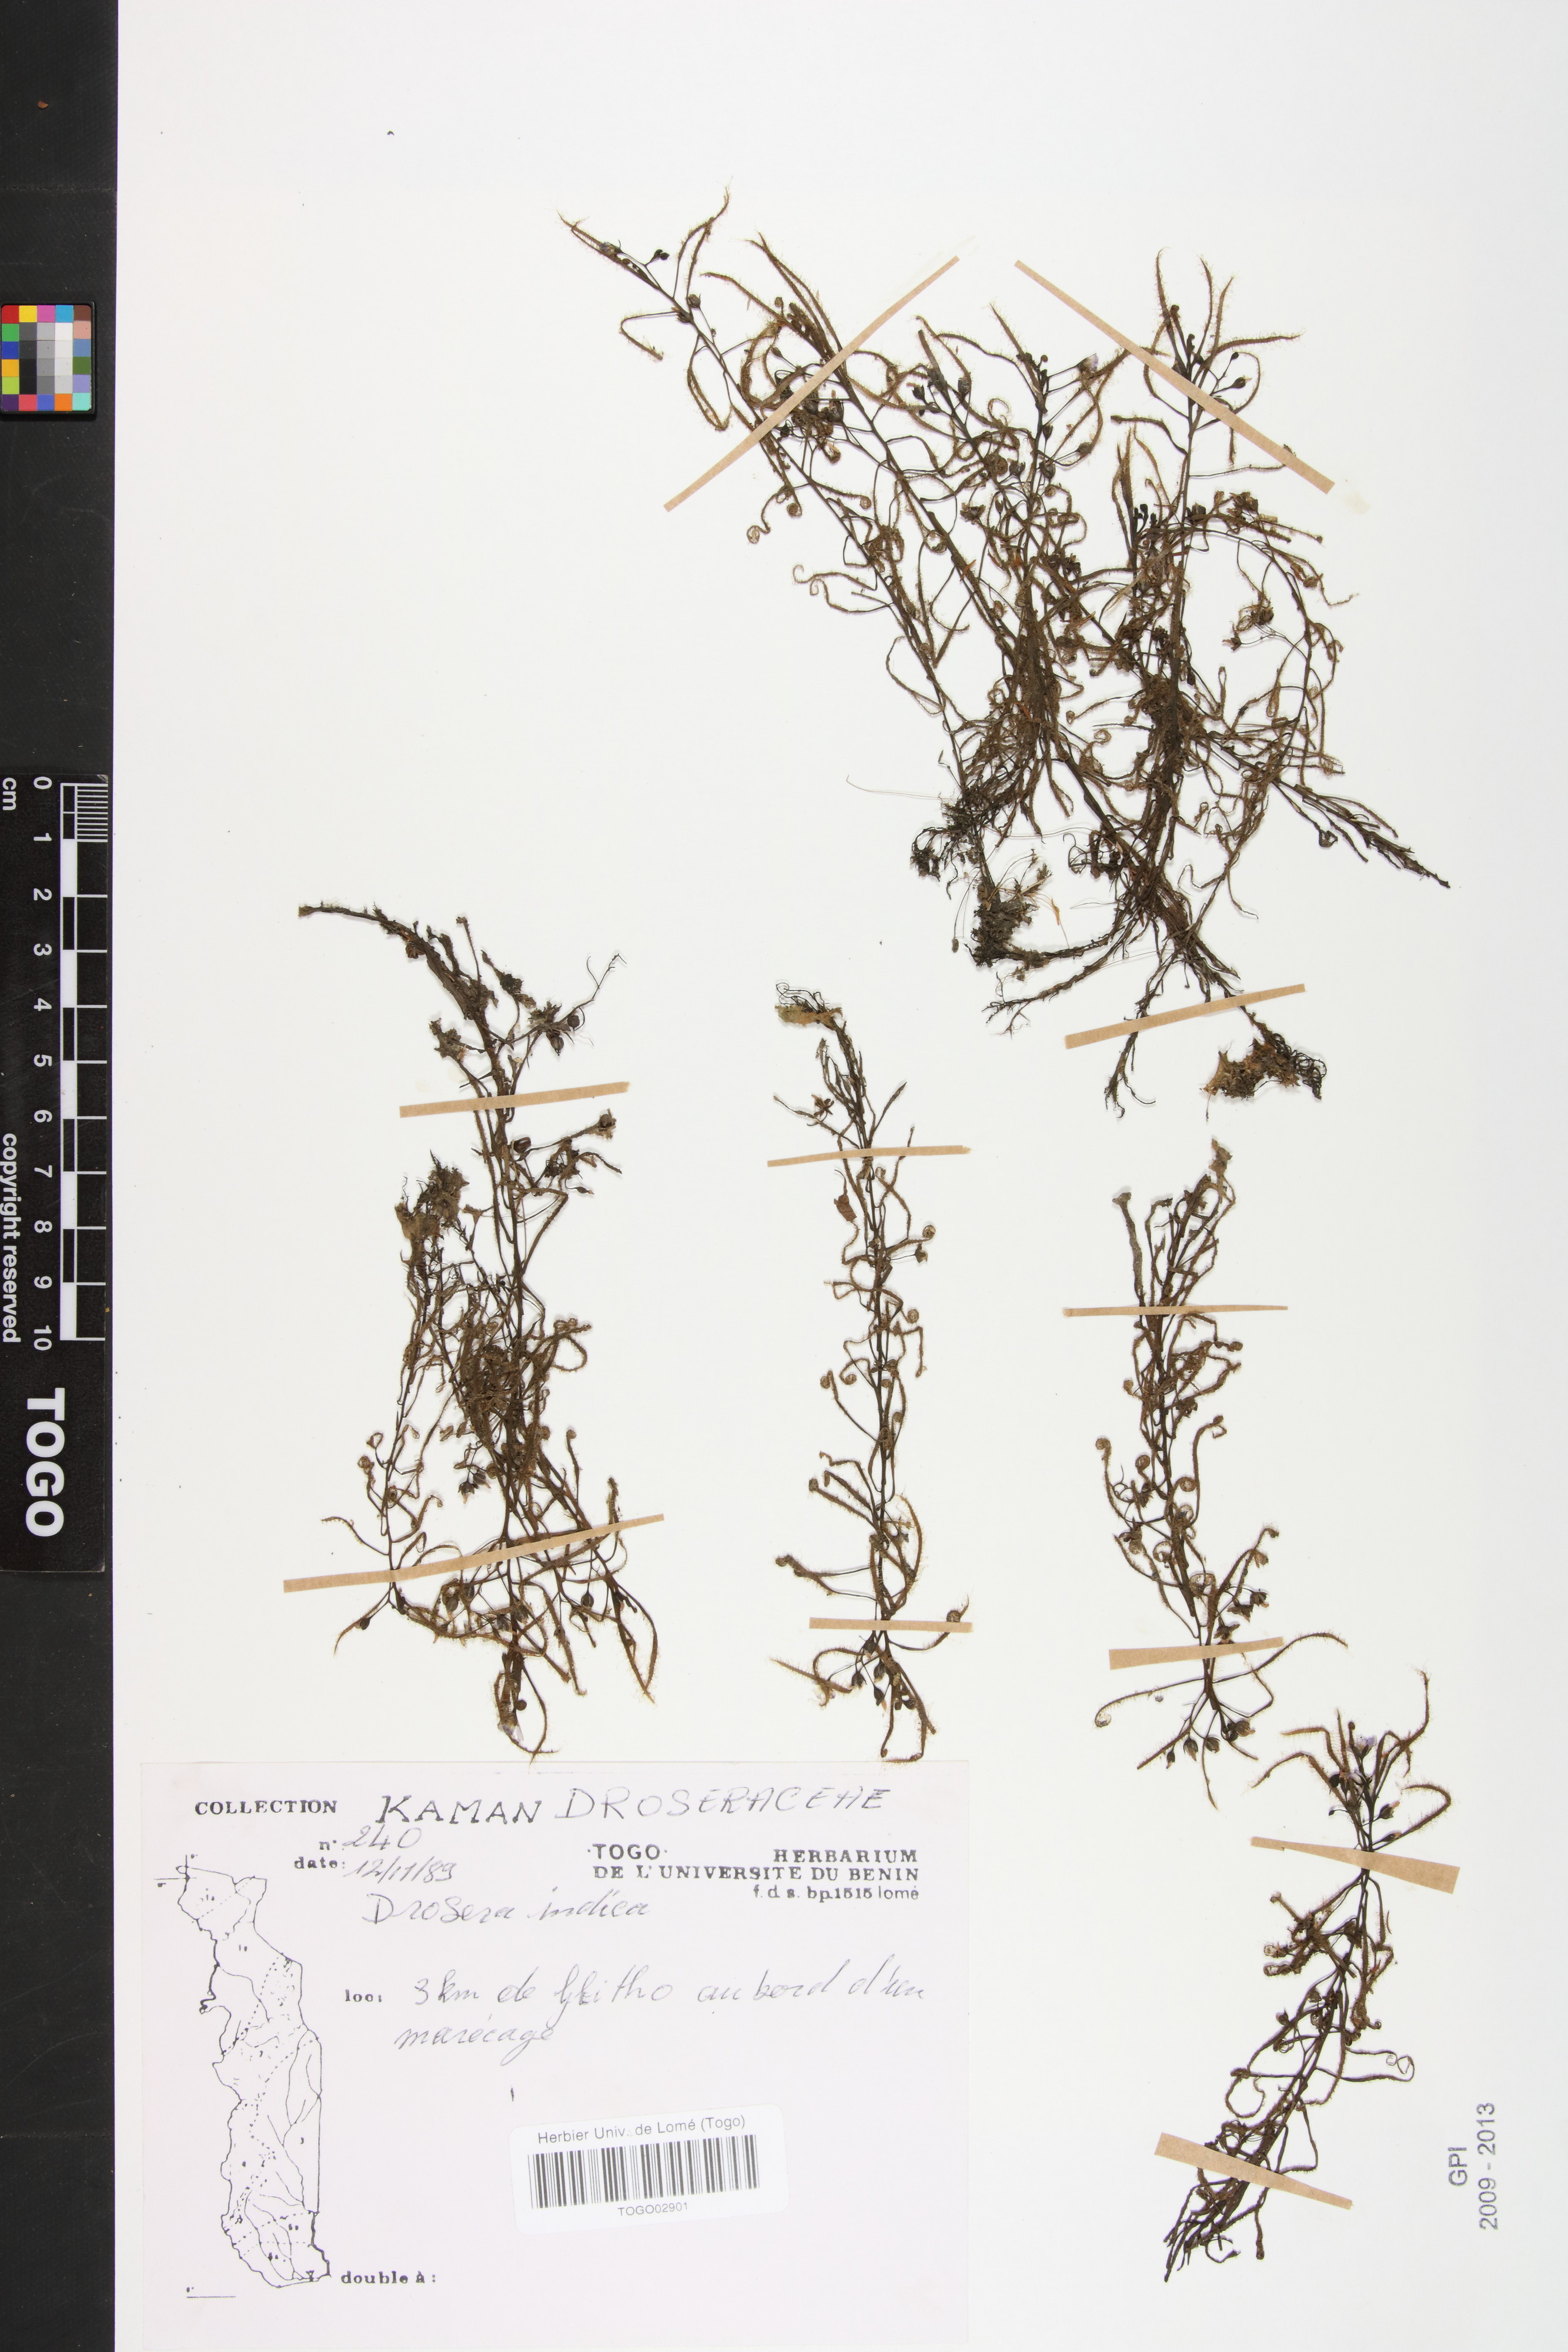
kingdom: Plantae
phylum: Tracheophyta
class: Magnoliopsida
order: Caryophyllales
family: Droseraceae
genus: Drosera
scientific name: Drosera indica
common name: Indian sundew
